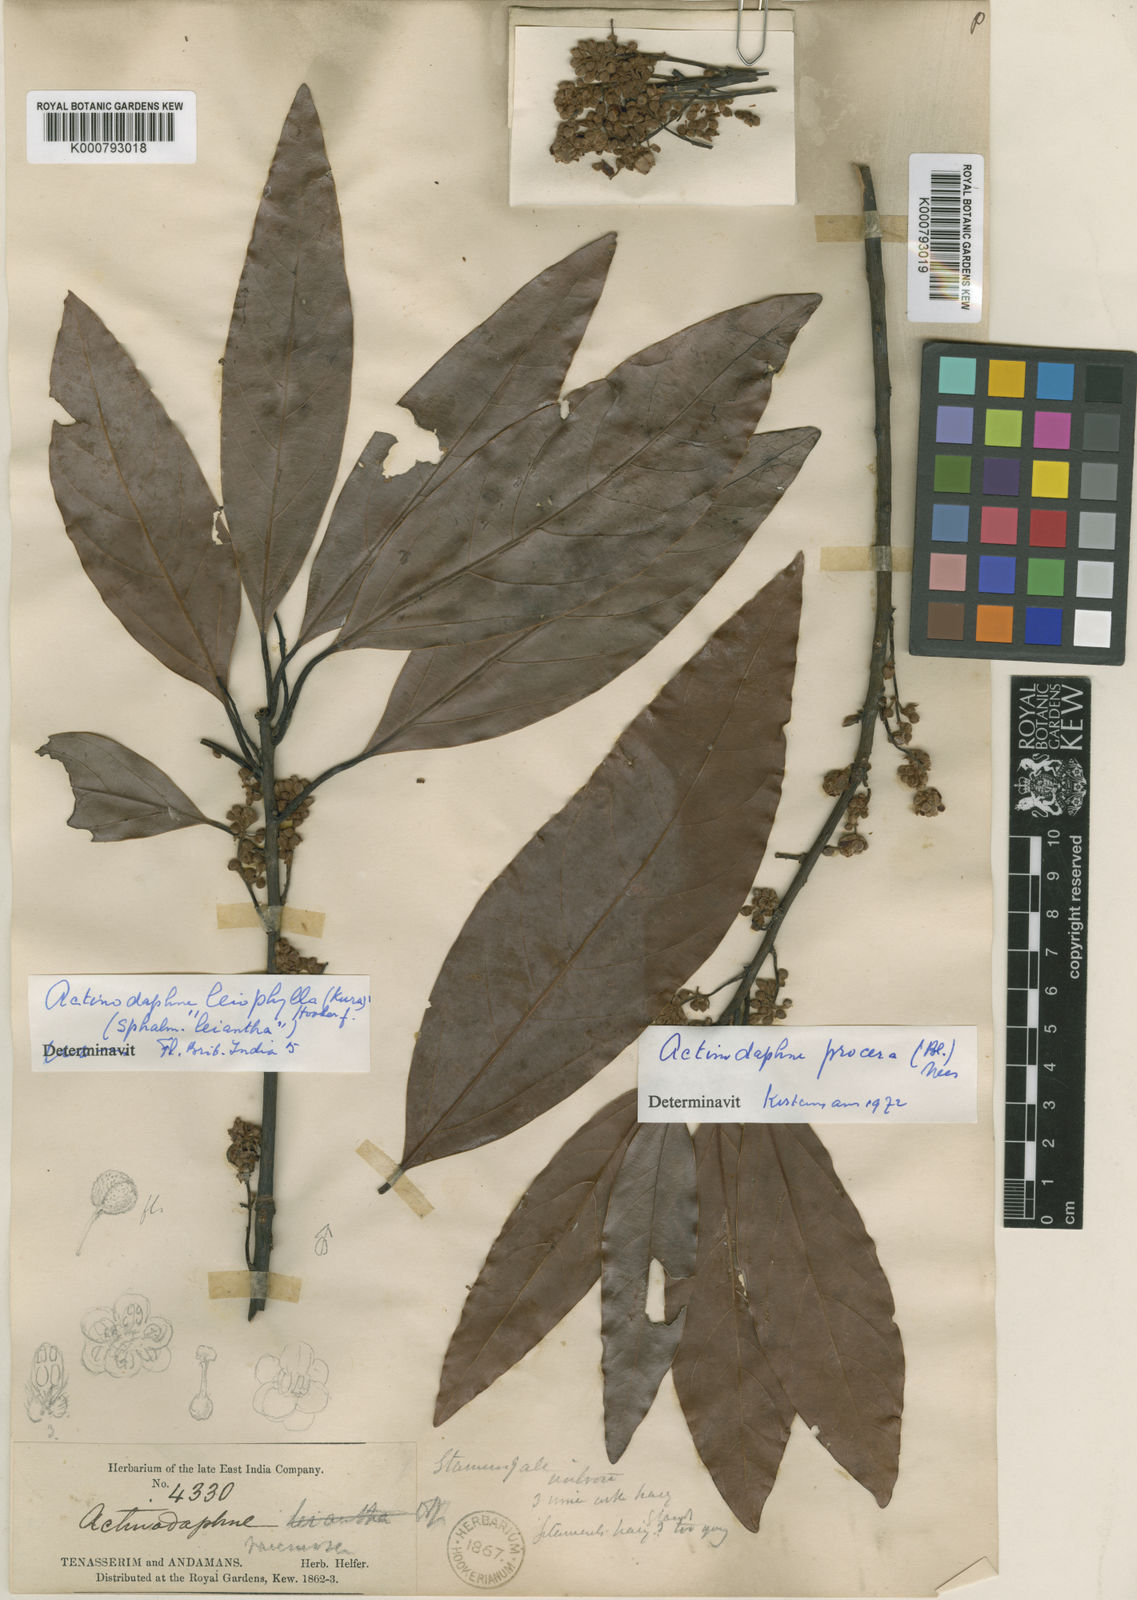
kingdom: Plantae
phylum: Tracheophyta
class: Magnoliopsida
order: Laurales
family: Lauraceae
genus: Actinodaphne
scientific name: Actinodaphne leiophylla
